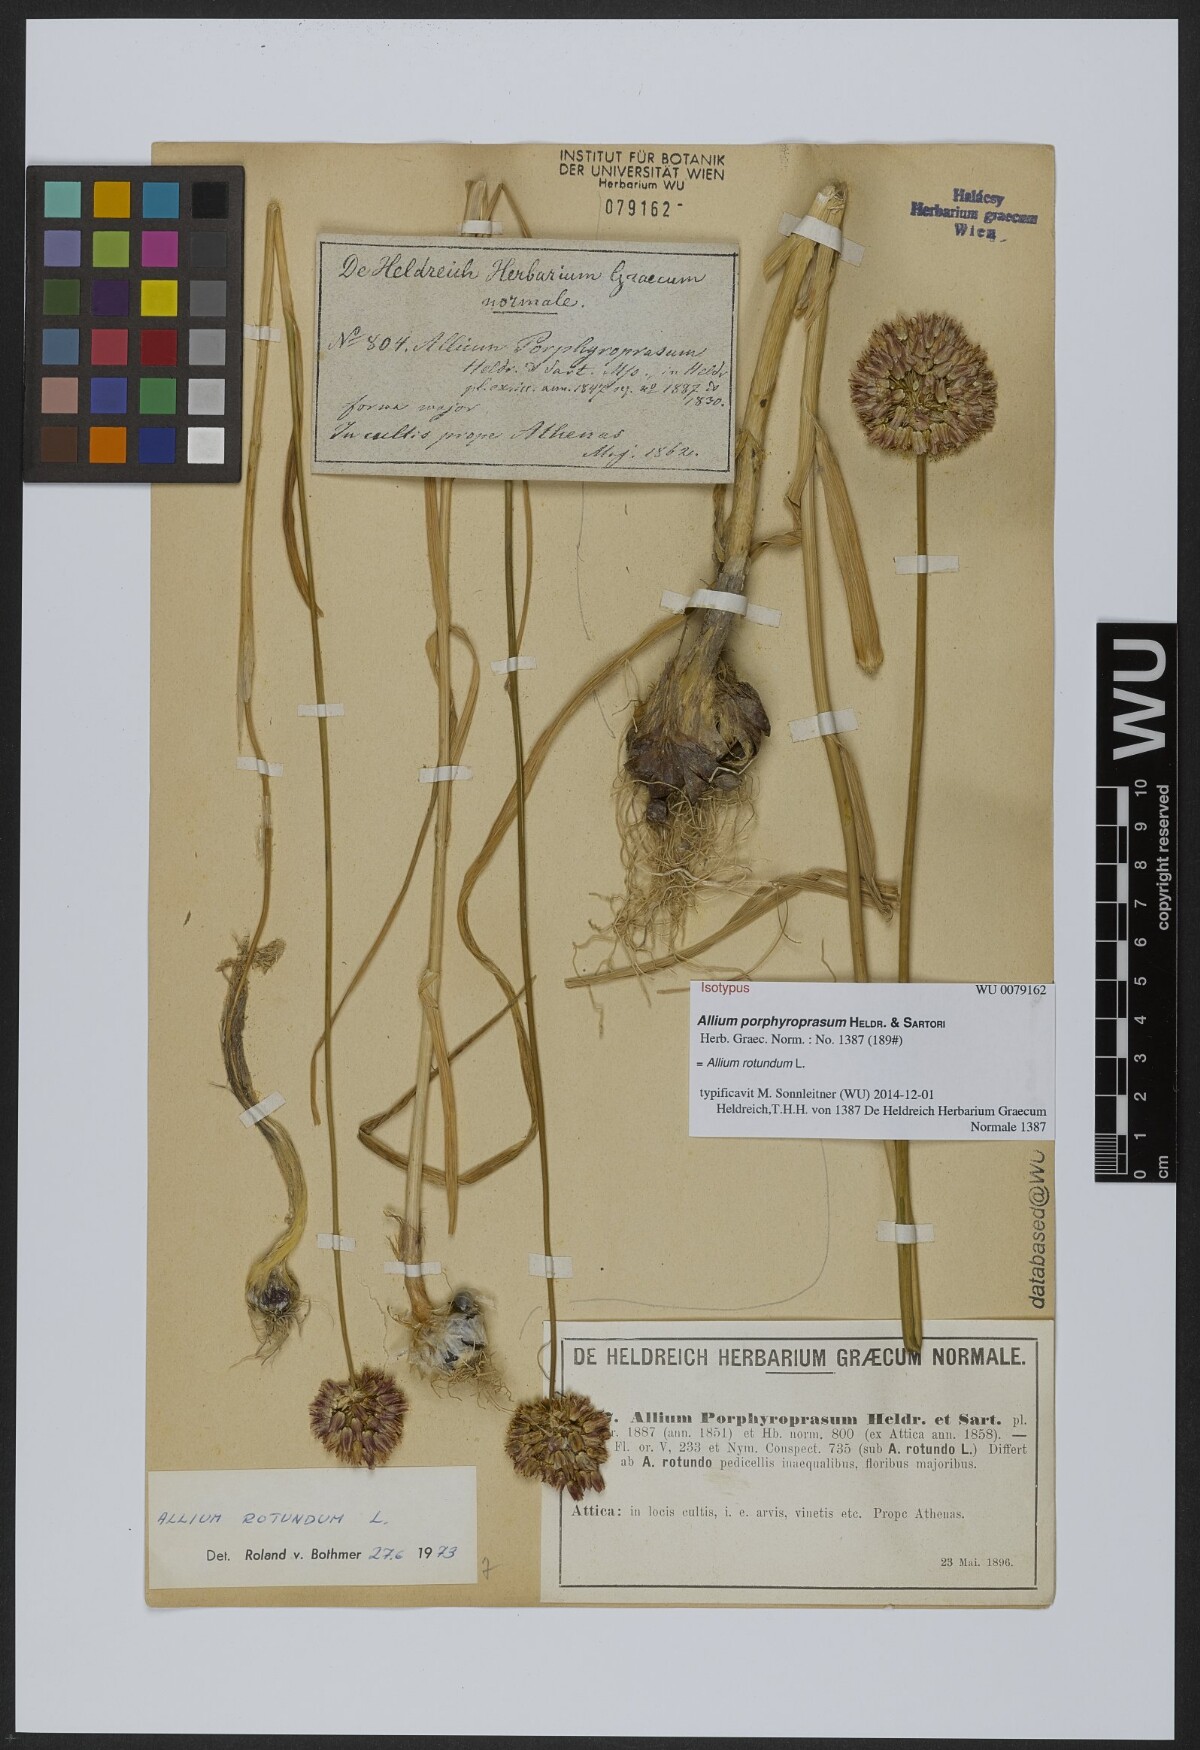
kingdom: Plantae
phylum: Tracheophyta
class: Liliopsida
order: Asparagales
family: Amaryllidaceae
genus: Allium
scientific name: Allium rotundum
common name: Sand leek
